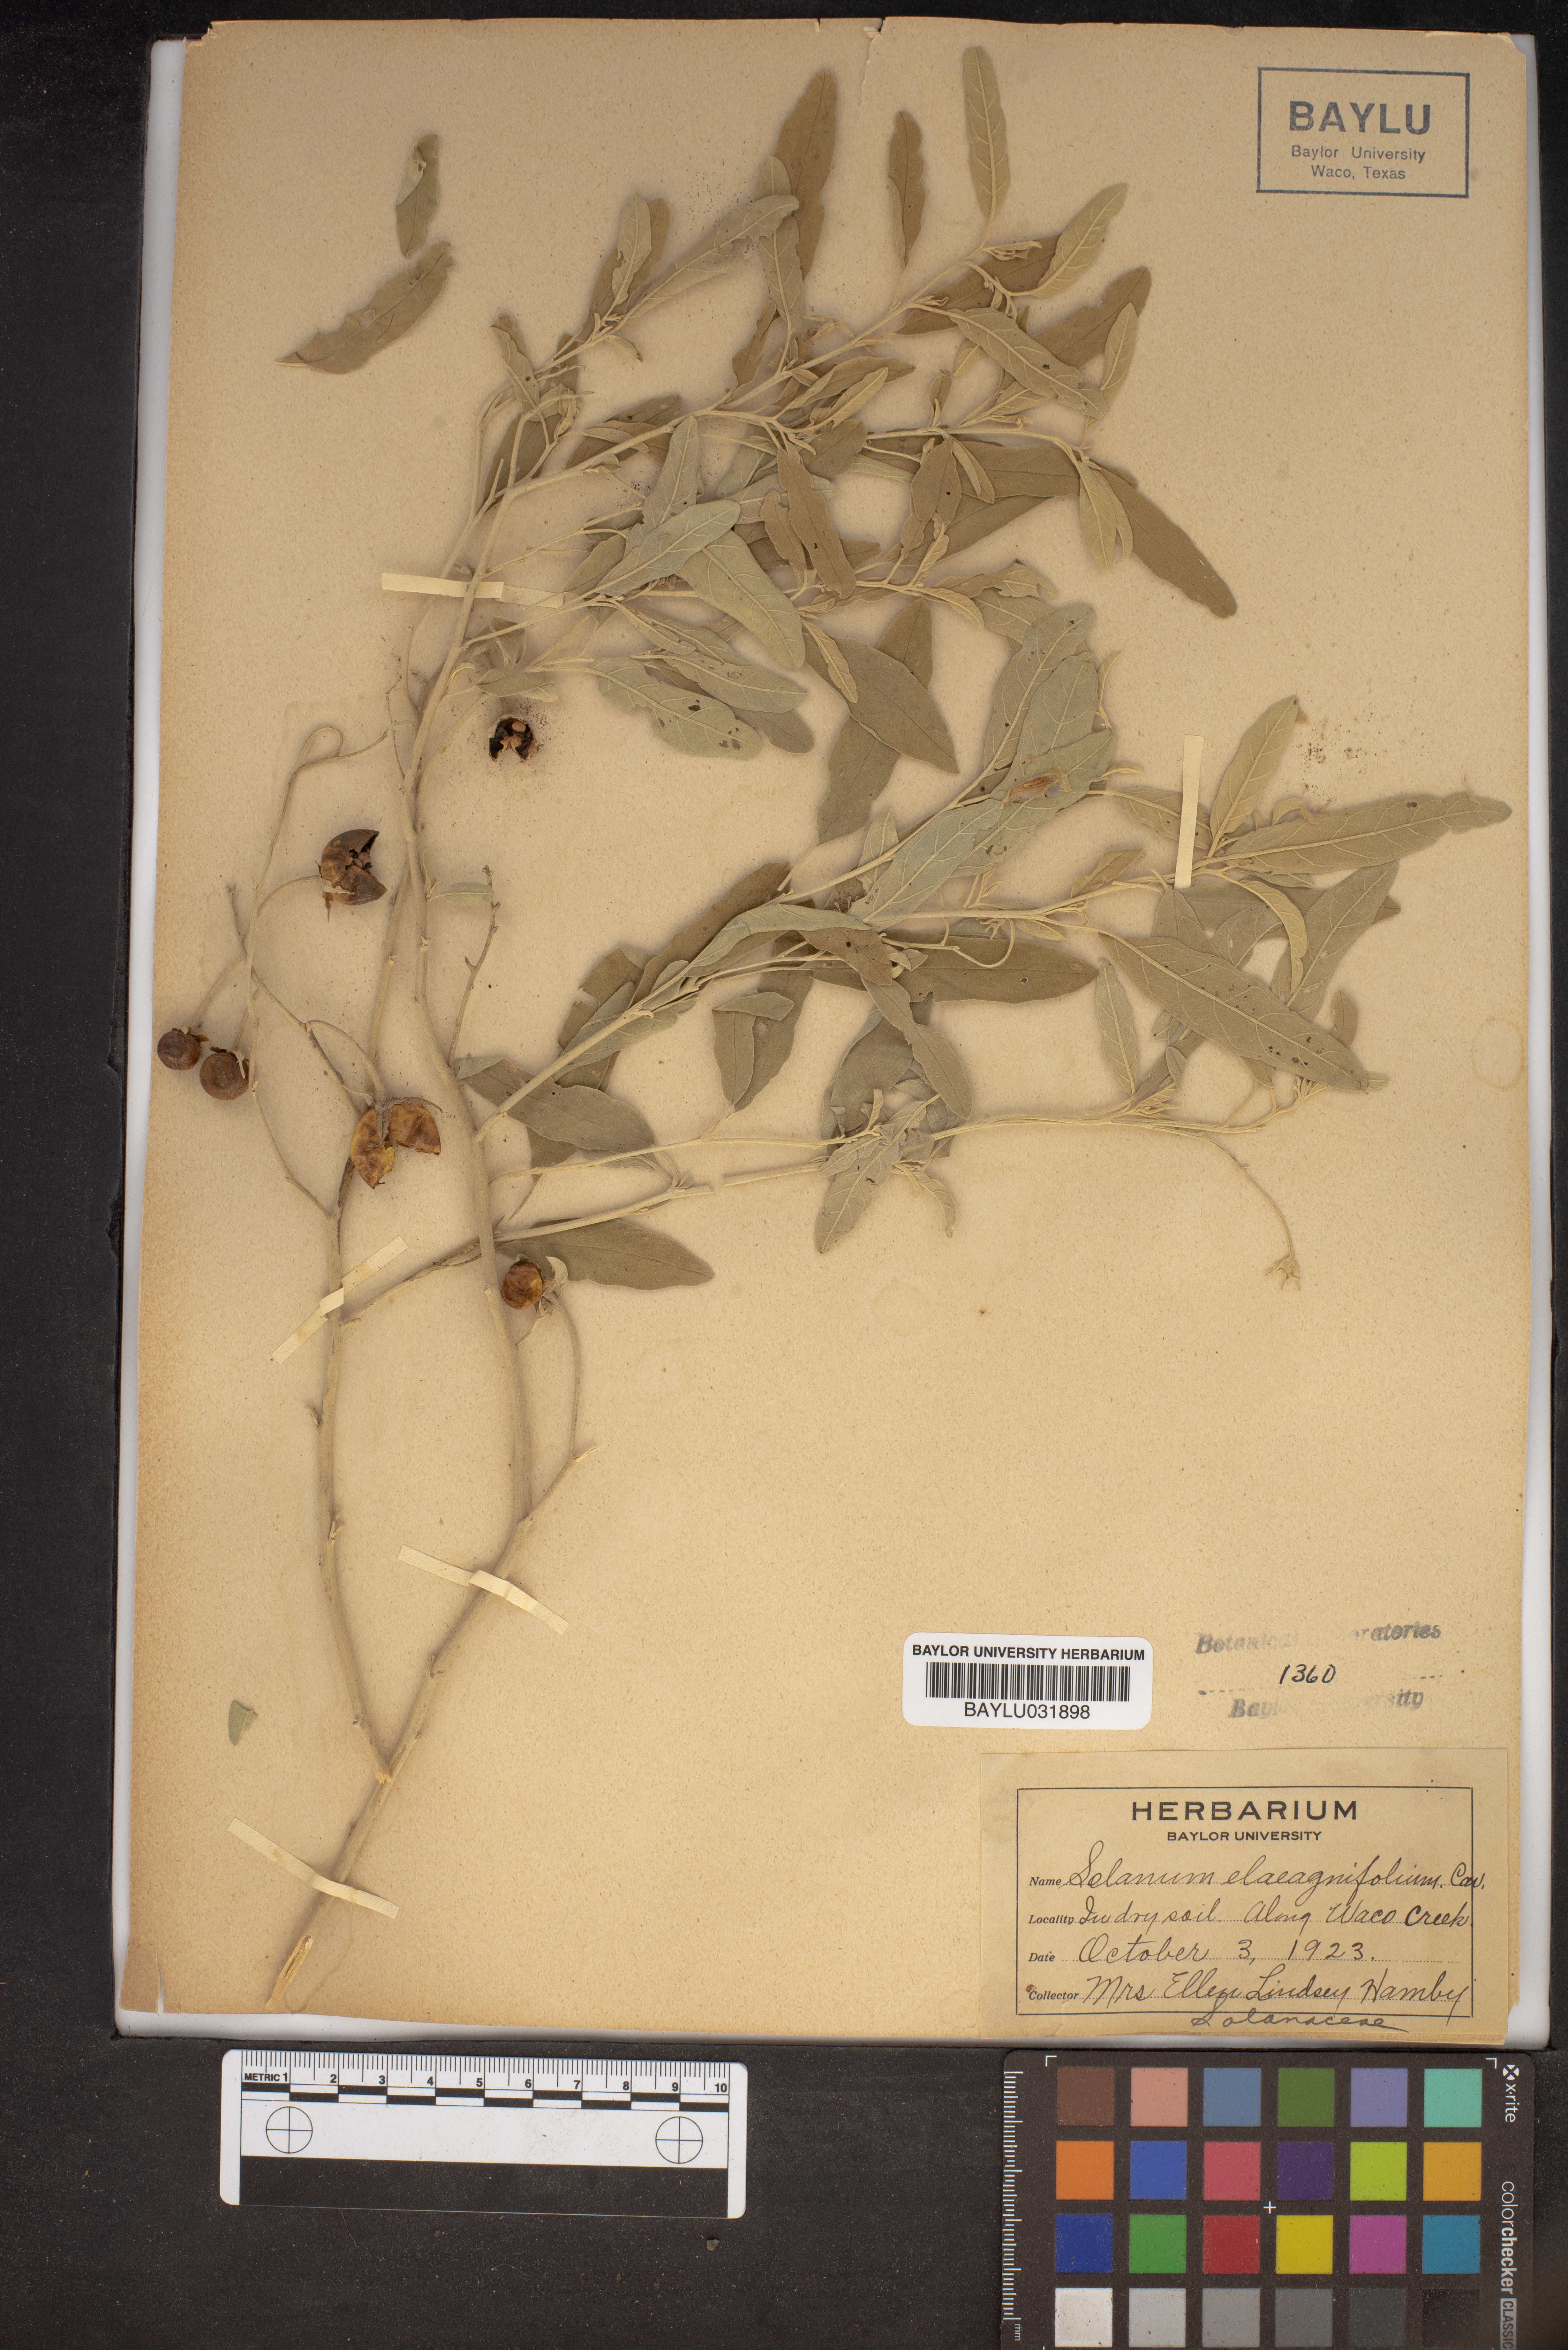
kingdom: Plantae
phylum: Tracheophyta
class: Magnoliopsida
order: Solanales
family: Solanaceae
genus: Solanum
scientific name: Solanum elaeagnifolium
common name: Silverleaf nightshade
